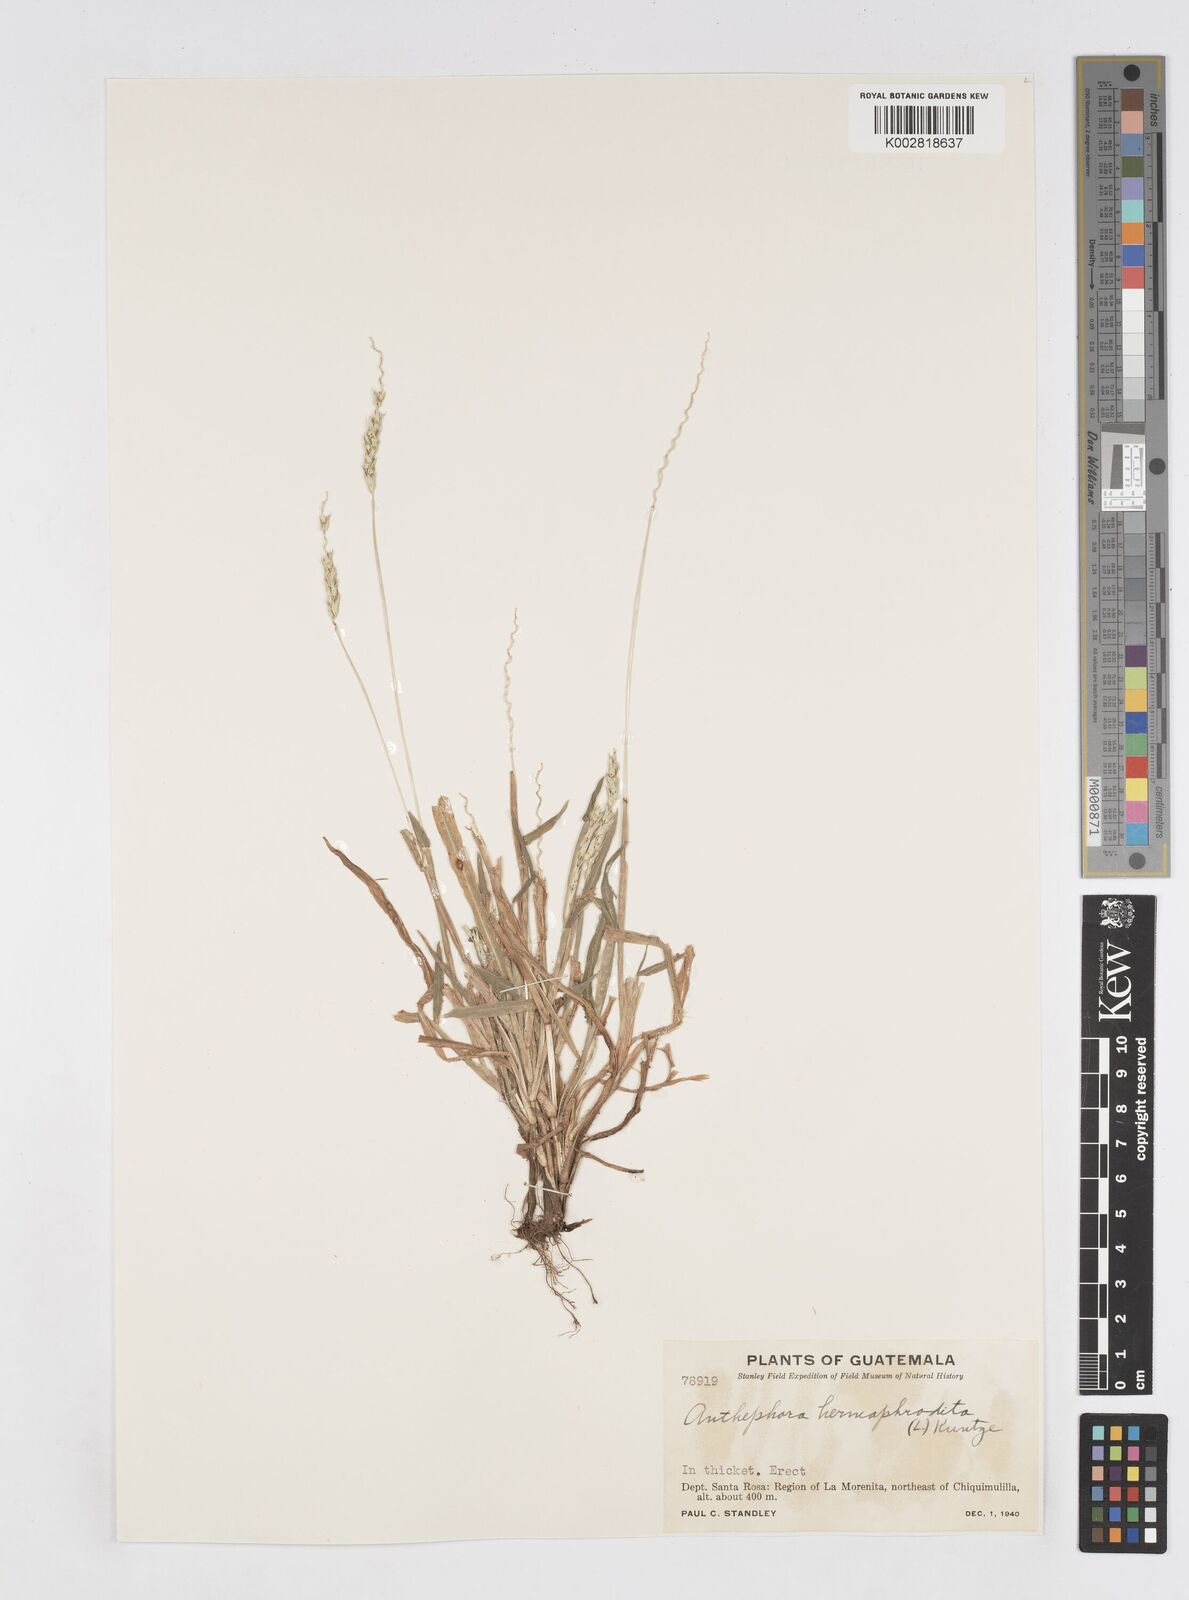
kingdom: Plantae
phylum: Tracheophyta
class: Liliopsida
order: Poales
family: Poaceae
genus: Anthephora
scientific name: Anthephora hermaphrodita
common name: Oldfield grass
